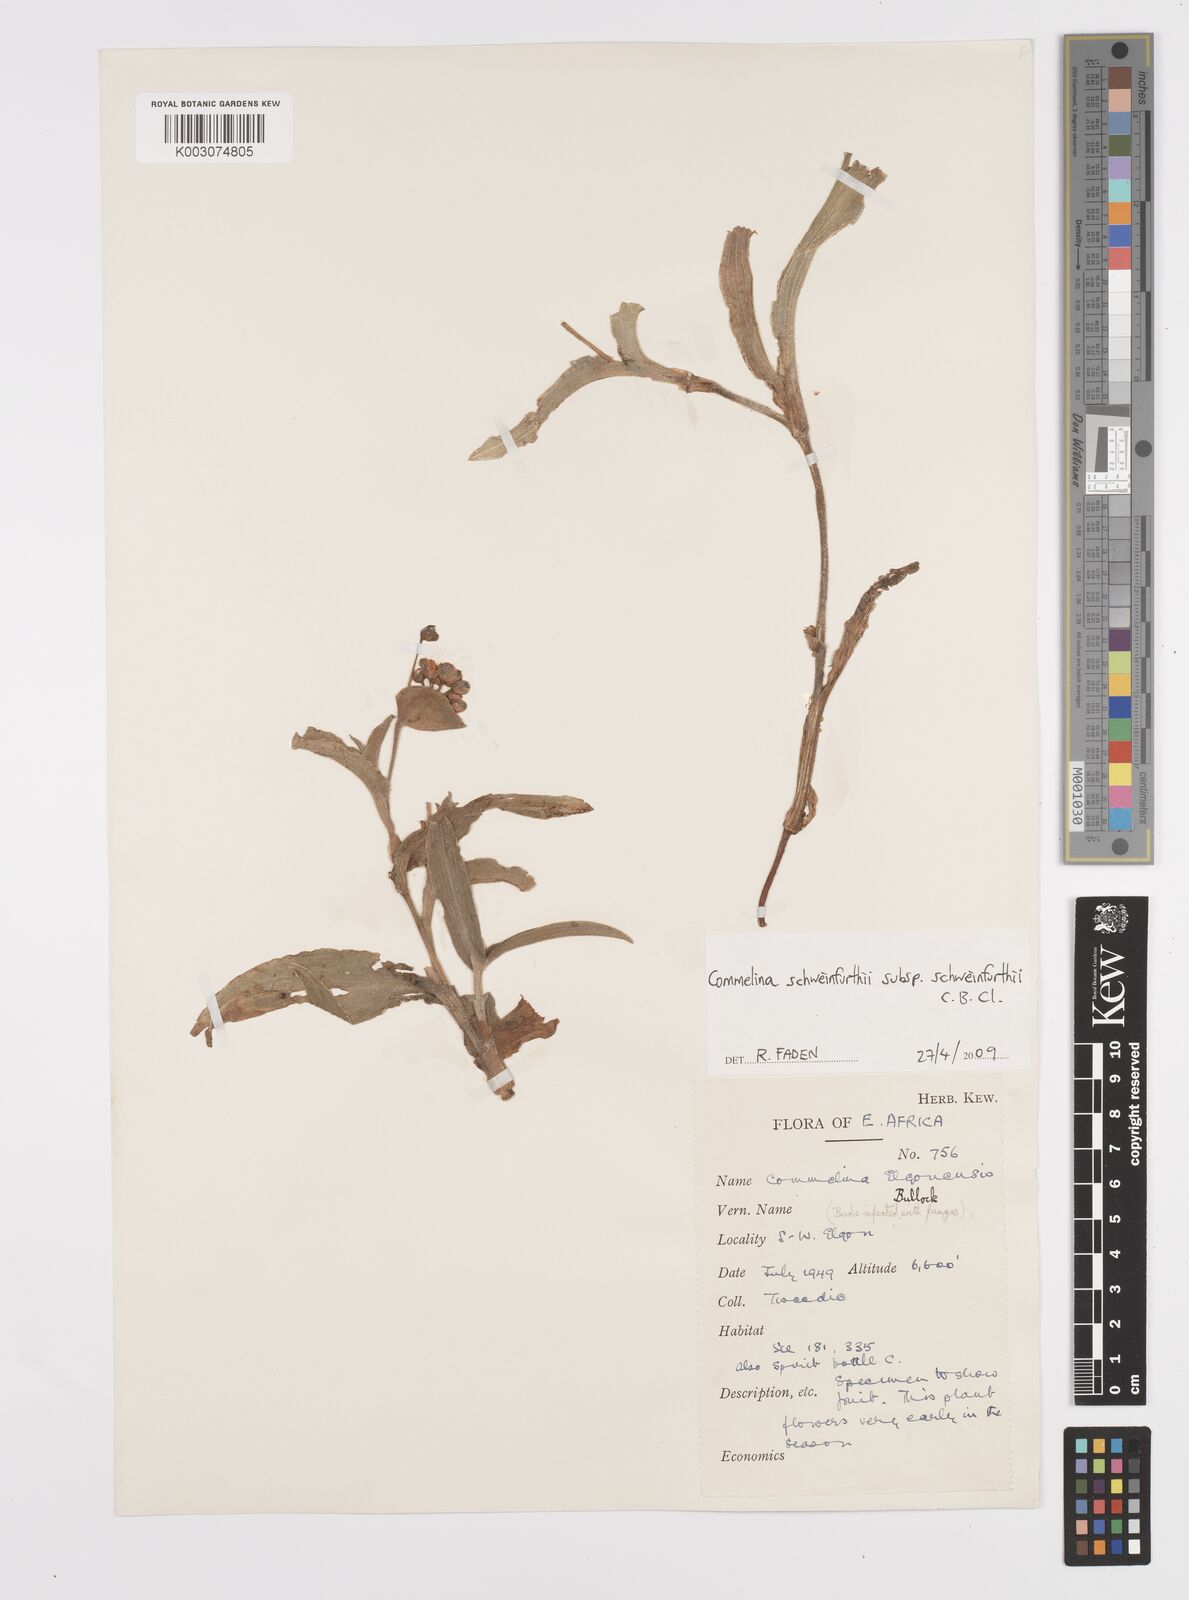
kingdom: Plantae
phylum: Tracheophyta
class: Liliopsida
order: Commelinales
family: Commelinaceae
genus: Commelina
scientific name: Commelina schweinfurthii
